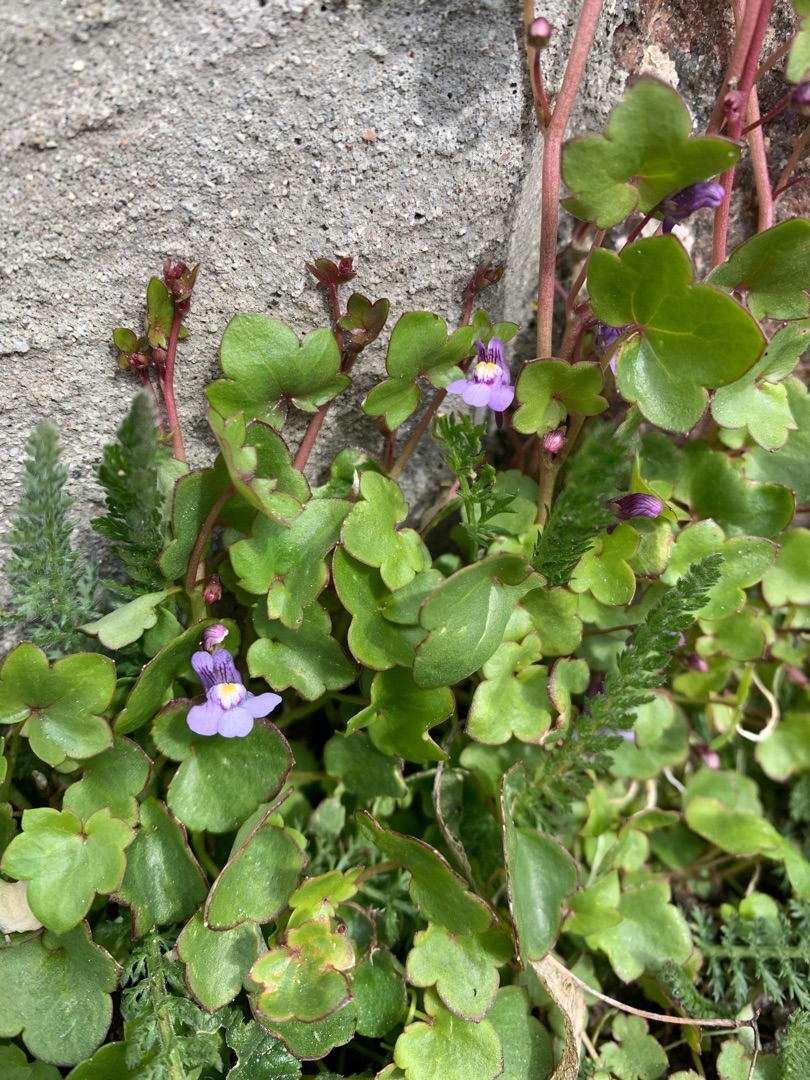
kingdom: Plantae
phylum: Tracheophyta
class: Magnoliopsida
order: Lamiales
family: Plantaginaceae
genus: Cymbalaria
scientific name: Cymbalaria muralis
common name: Vedbend-torskemund
